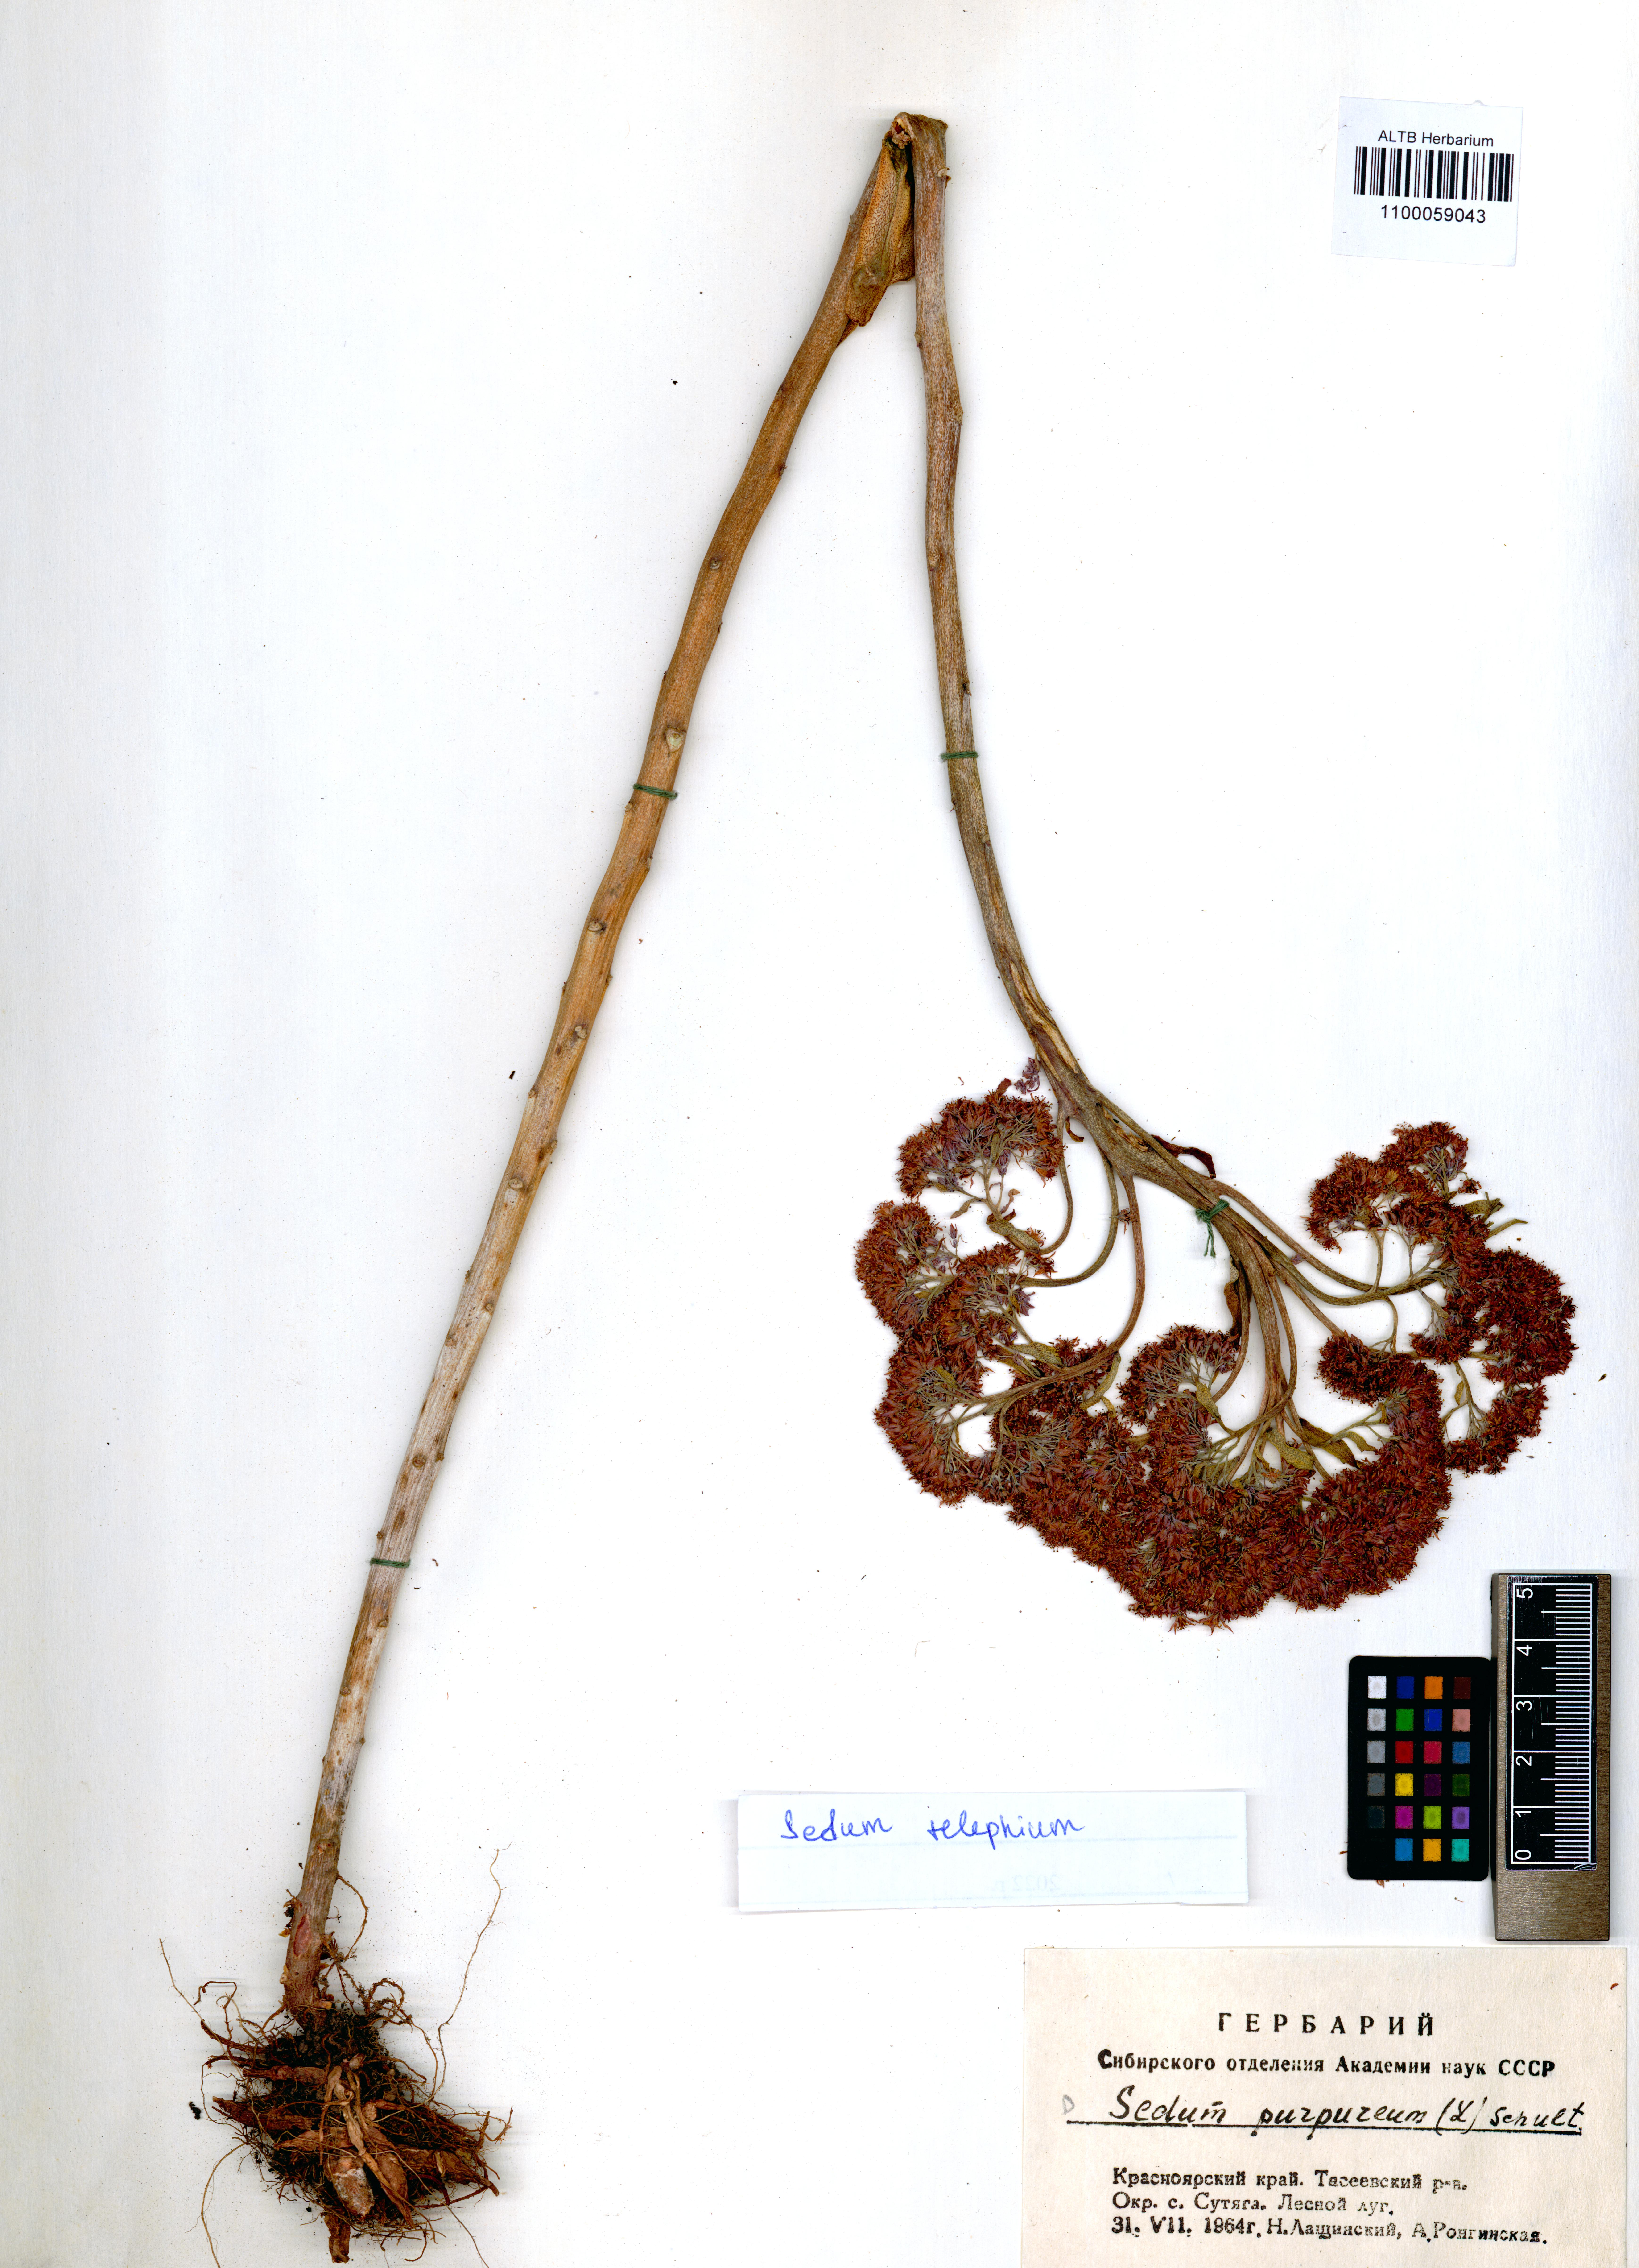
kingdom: Plantae
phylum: Tracheophyta
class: Magnoliopsida
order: Saxifragales
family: Crassulaceae
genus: Hylotelephium
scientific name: Hylotelephium telephium
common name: Live-forever
